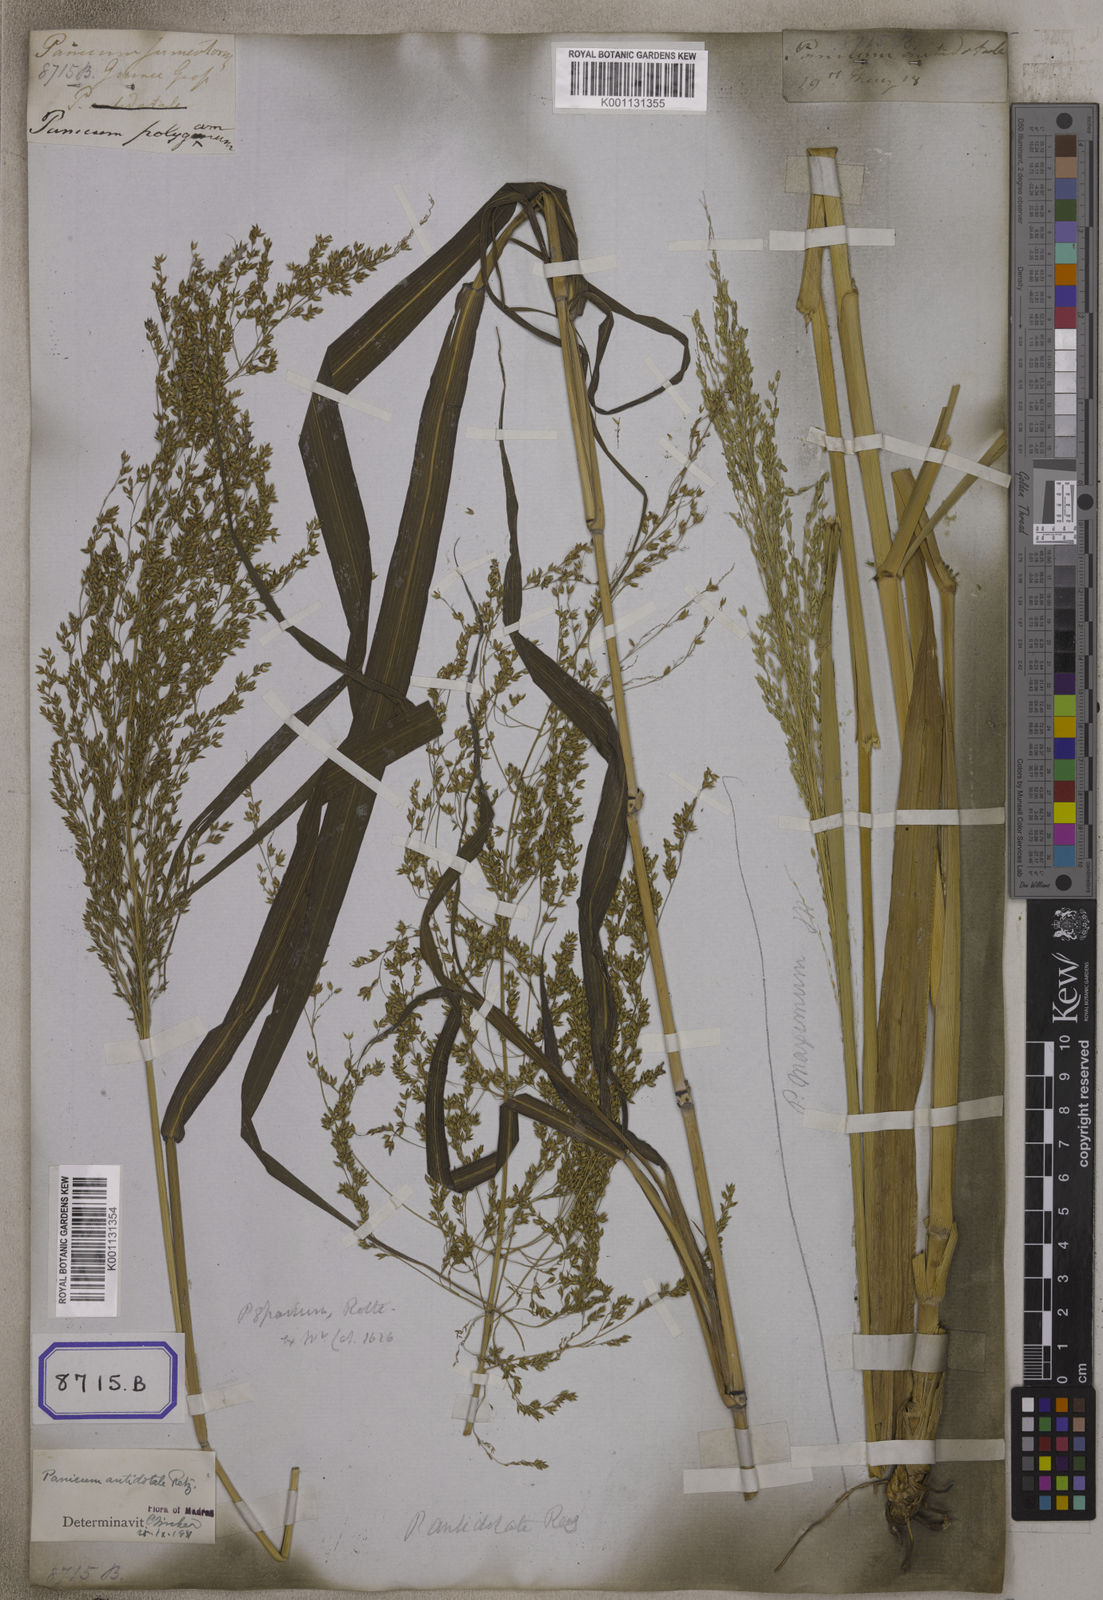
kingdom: Plantae
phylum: Tracheophyta
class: Liliopsida
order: Poales
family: Poaceae
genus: Megathyrsus
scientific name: Megathyrsus maximus
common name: Guineagrass
